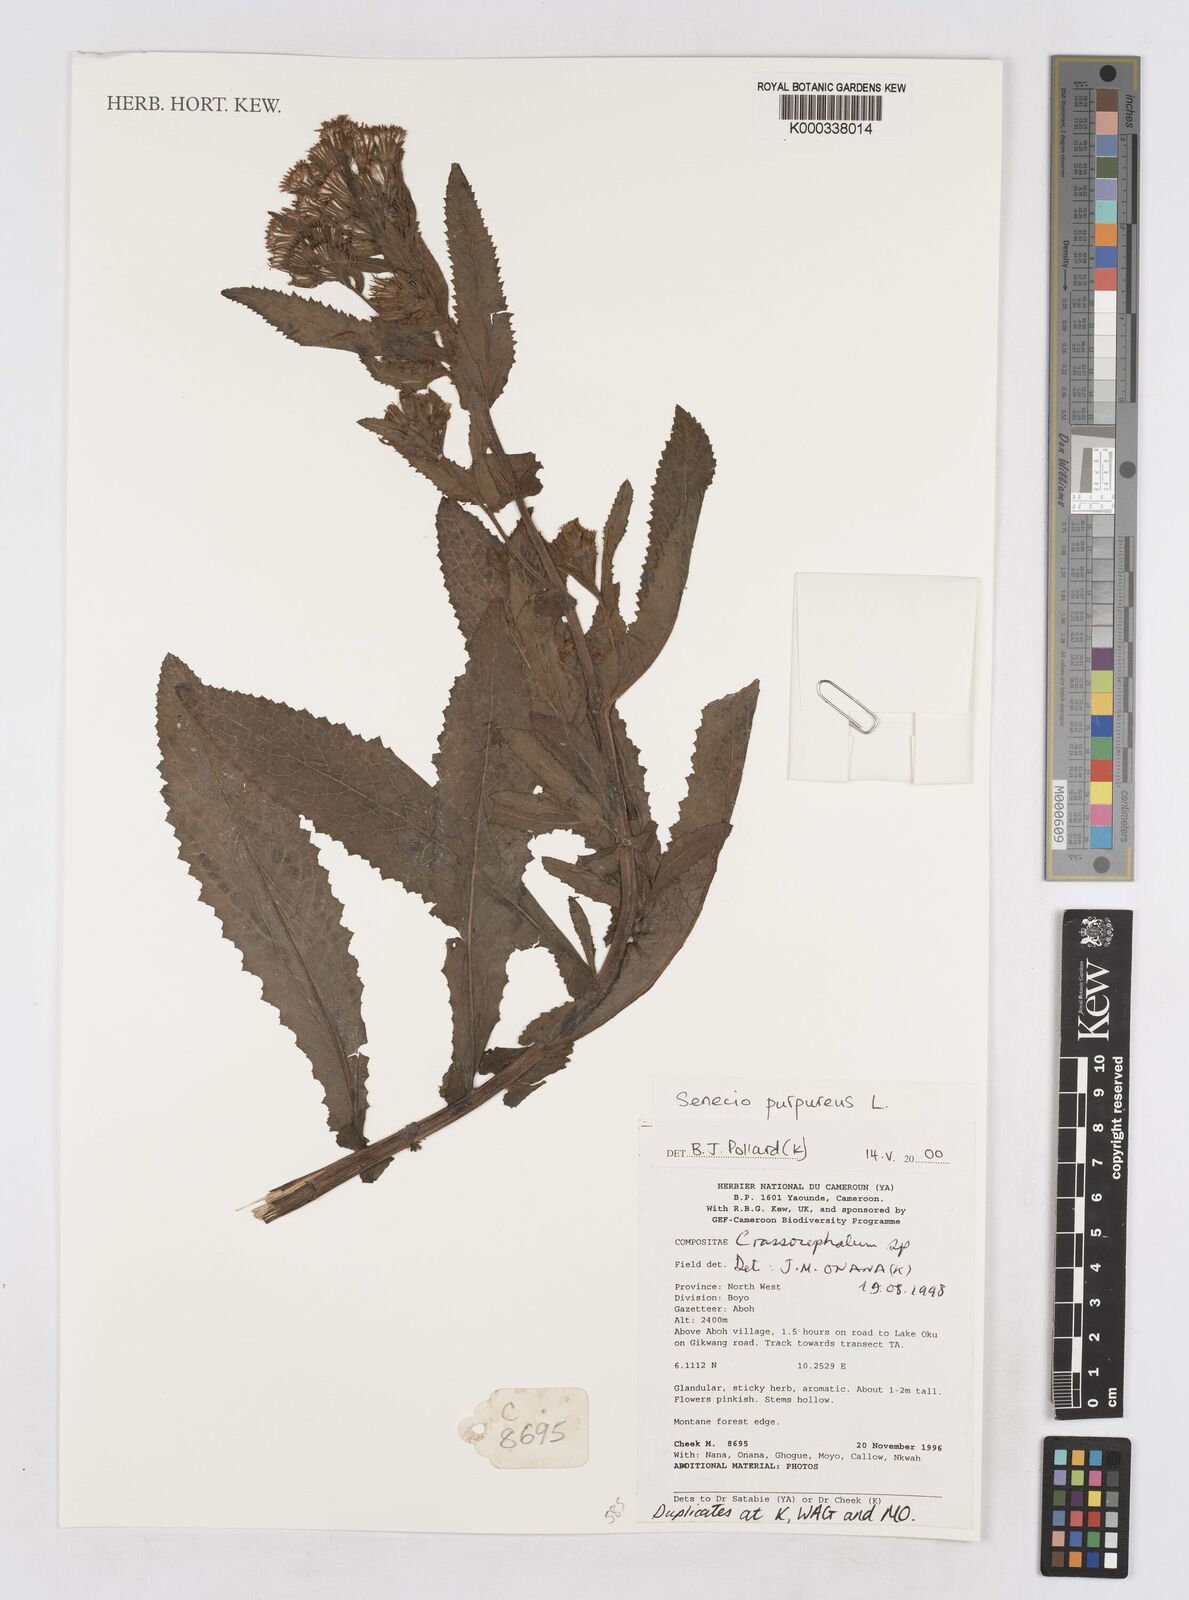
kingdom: Plantae
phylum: Tracheophyta
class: Magnoliopsida
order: Asterales
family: Asteraceae
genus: Senecio
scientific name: Senecio purpureus
